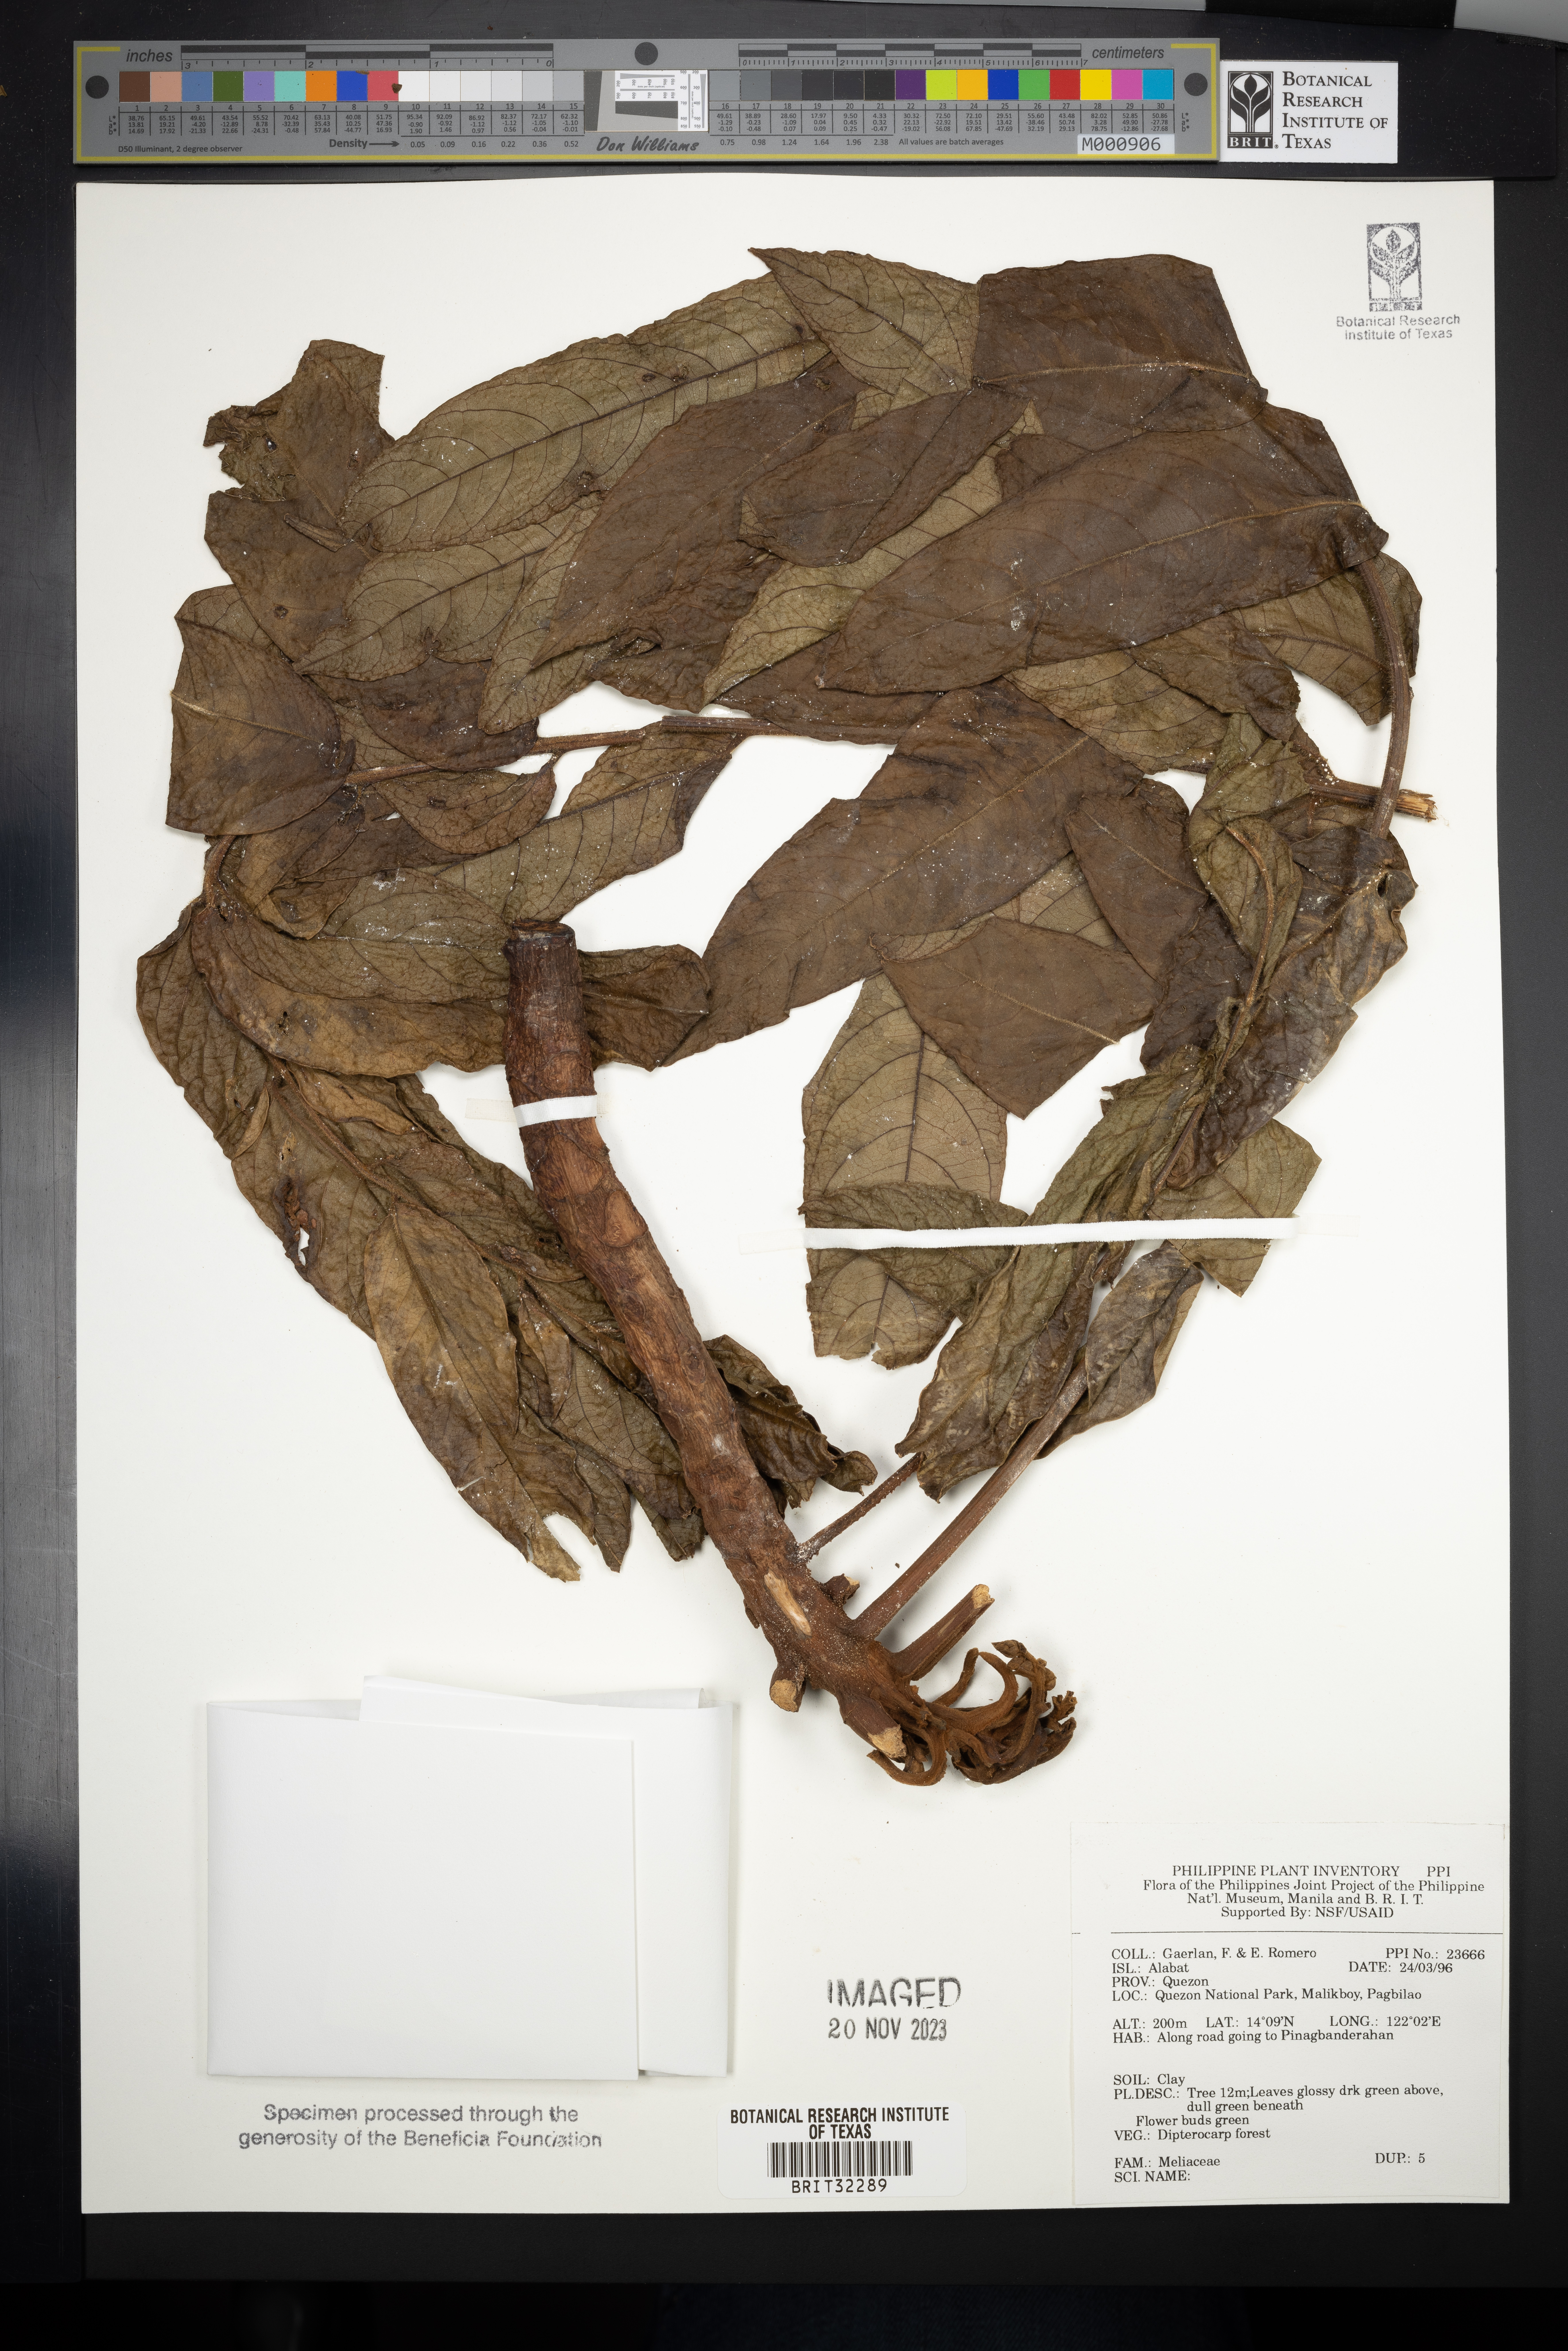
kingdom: Plantae
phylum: Tracheophyta
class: Magnoliopsida
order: Sapindales
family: Meliaceae
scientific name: Meliaceae
